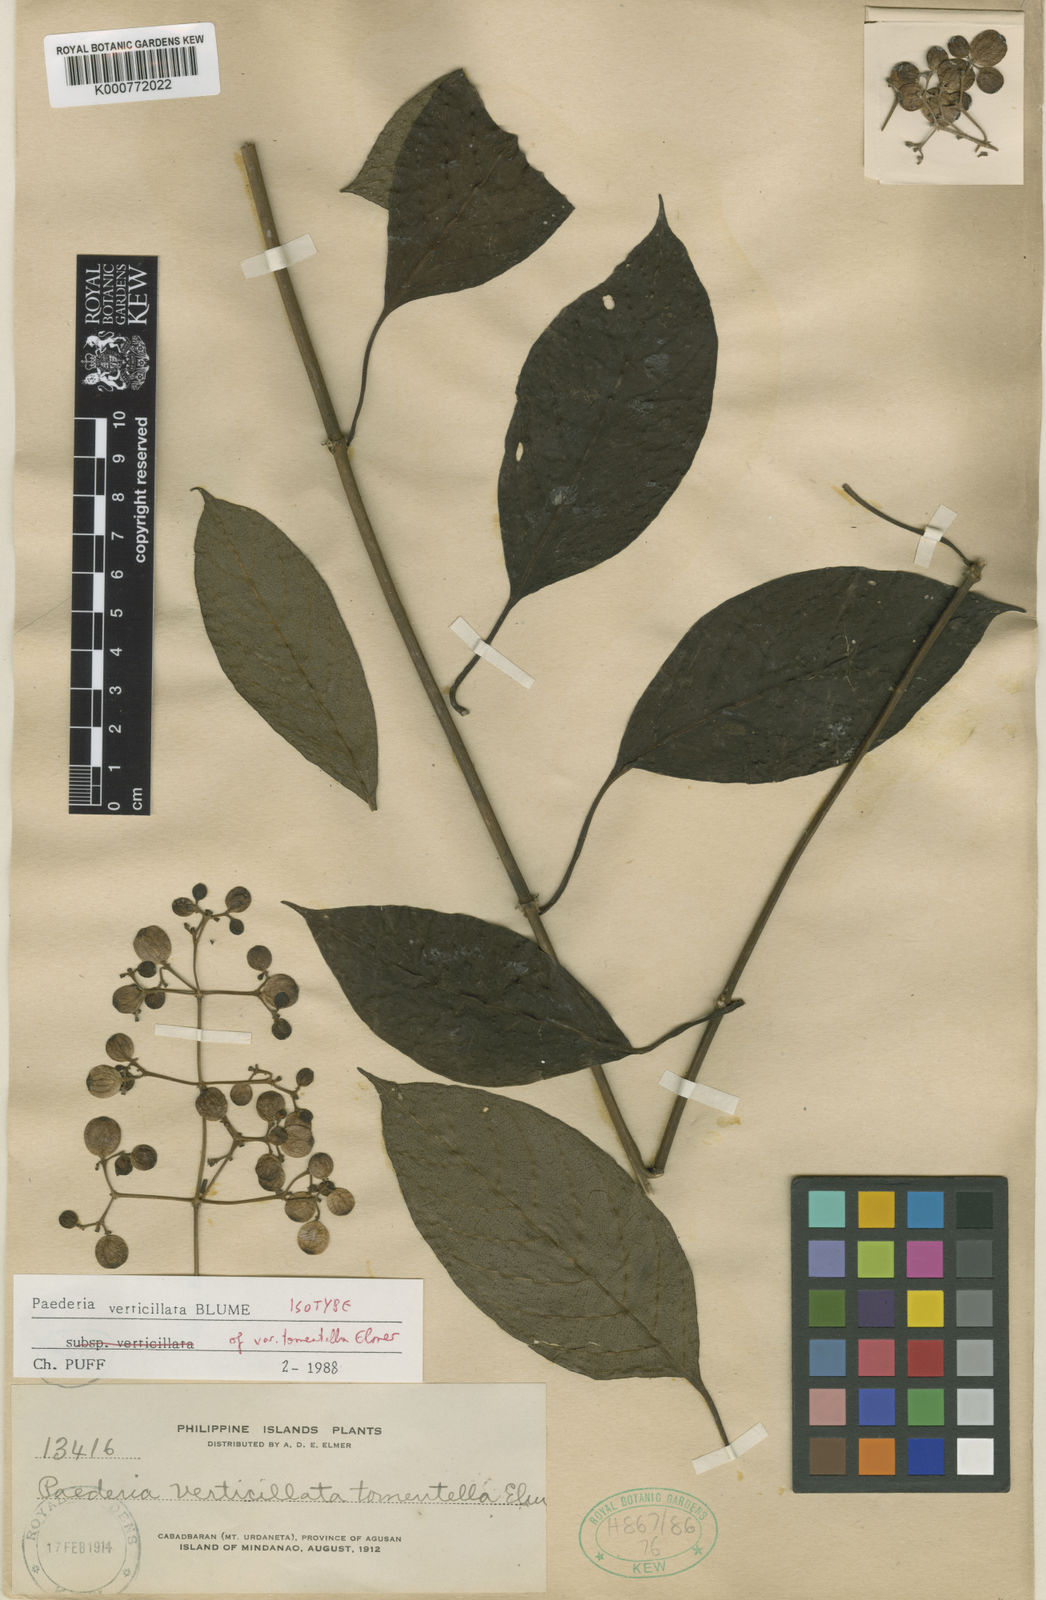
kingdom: Plantae
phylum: Tracheophyta
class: Magnoliopsida
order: Gentianales
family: Rubiaceae
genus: Paederia
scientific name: Paederia verticillata
